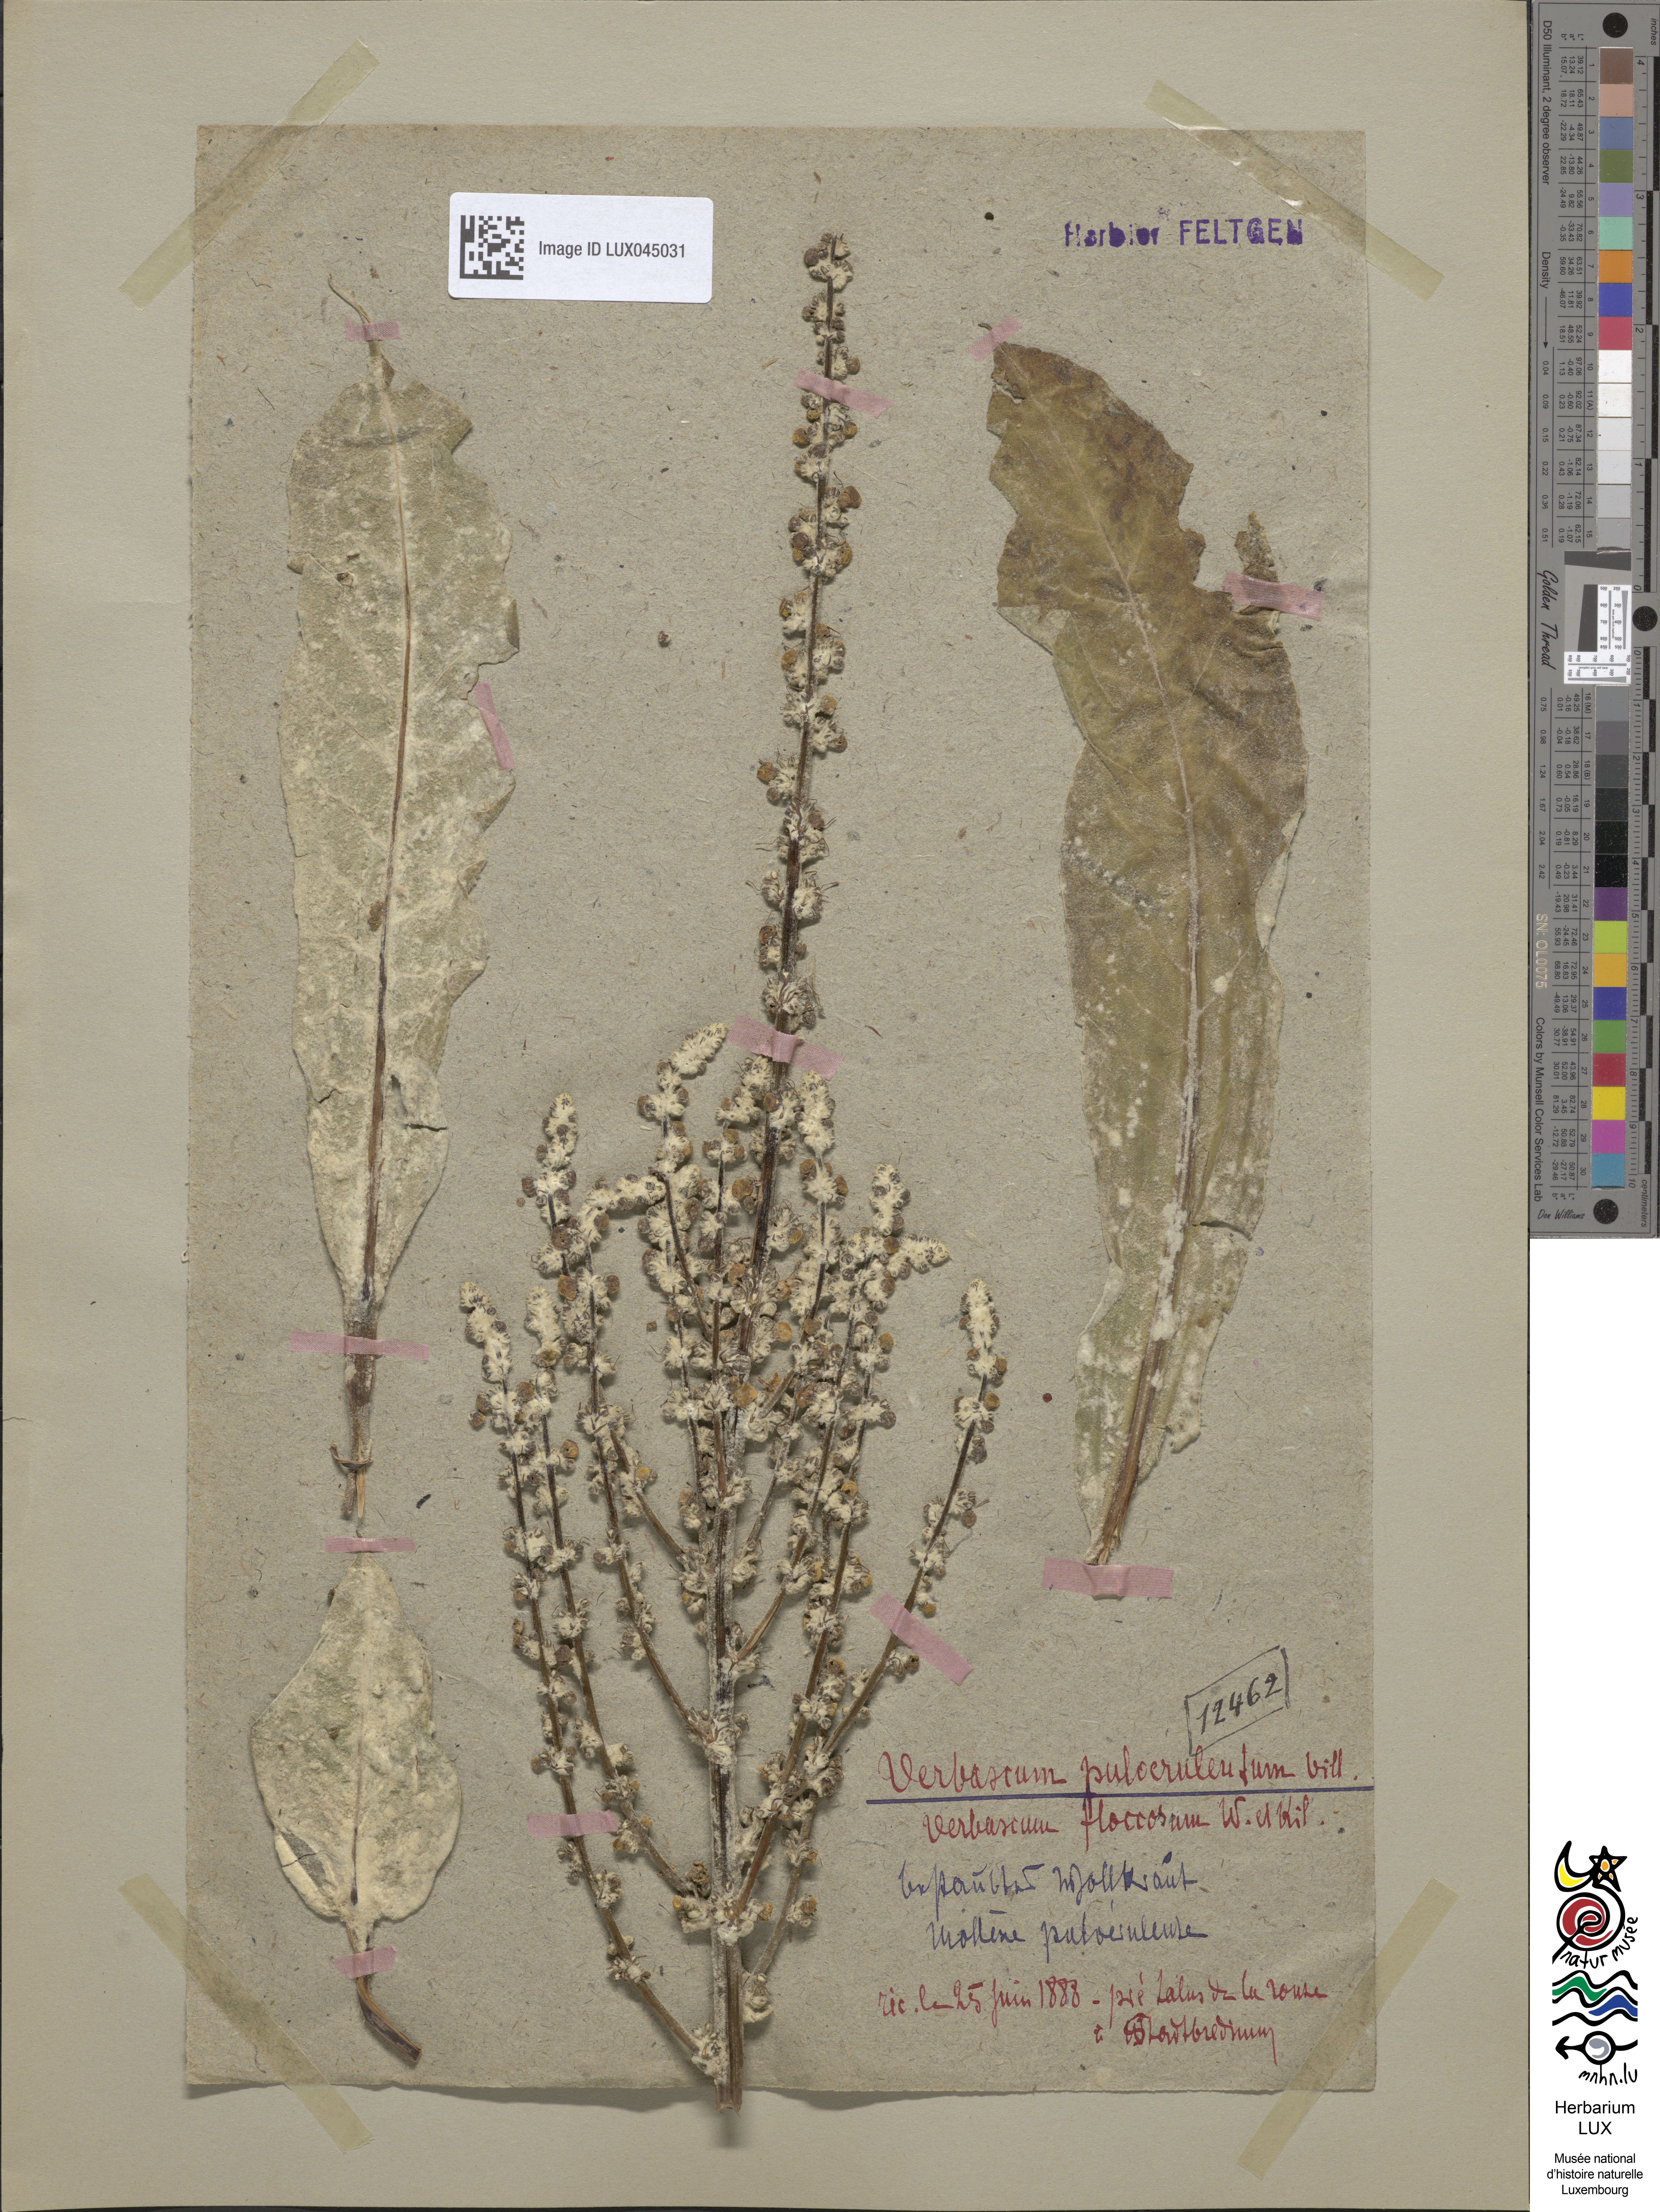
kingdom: Plantae
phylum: Tracheophyta
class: Magnoliopsida
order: Lamiales
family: Scrophulariaceae
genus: Verbascum
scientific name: Verbascum pulverulentum
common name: Broad-leaf mullein
